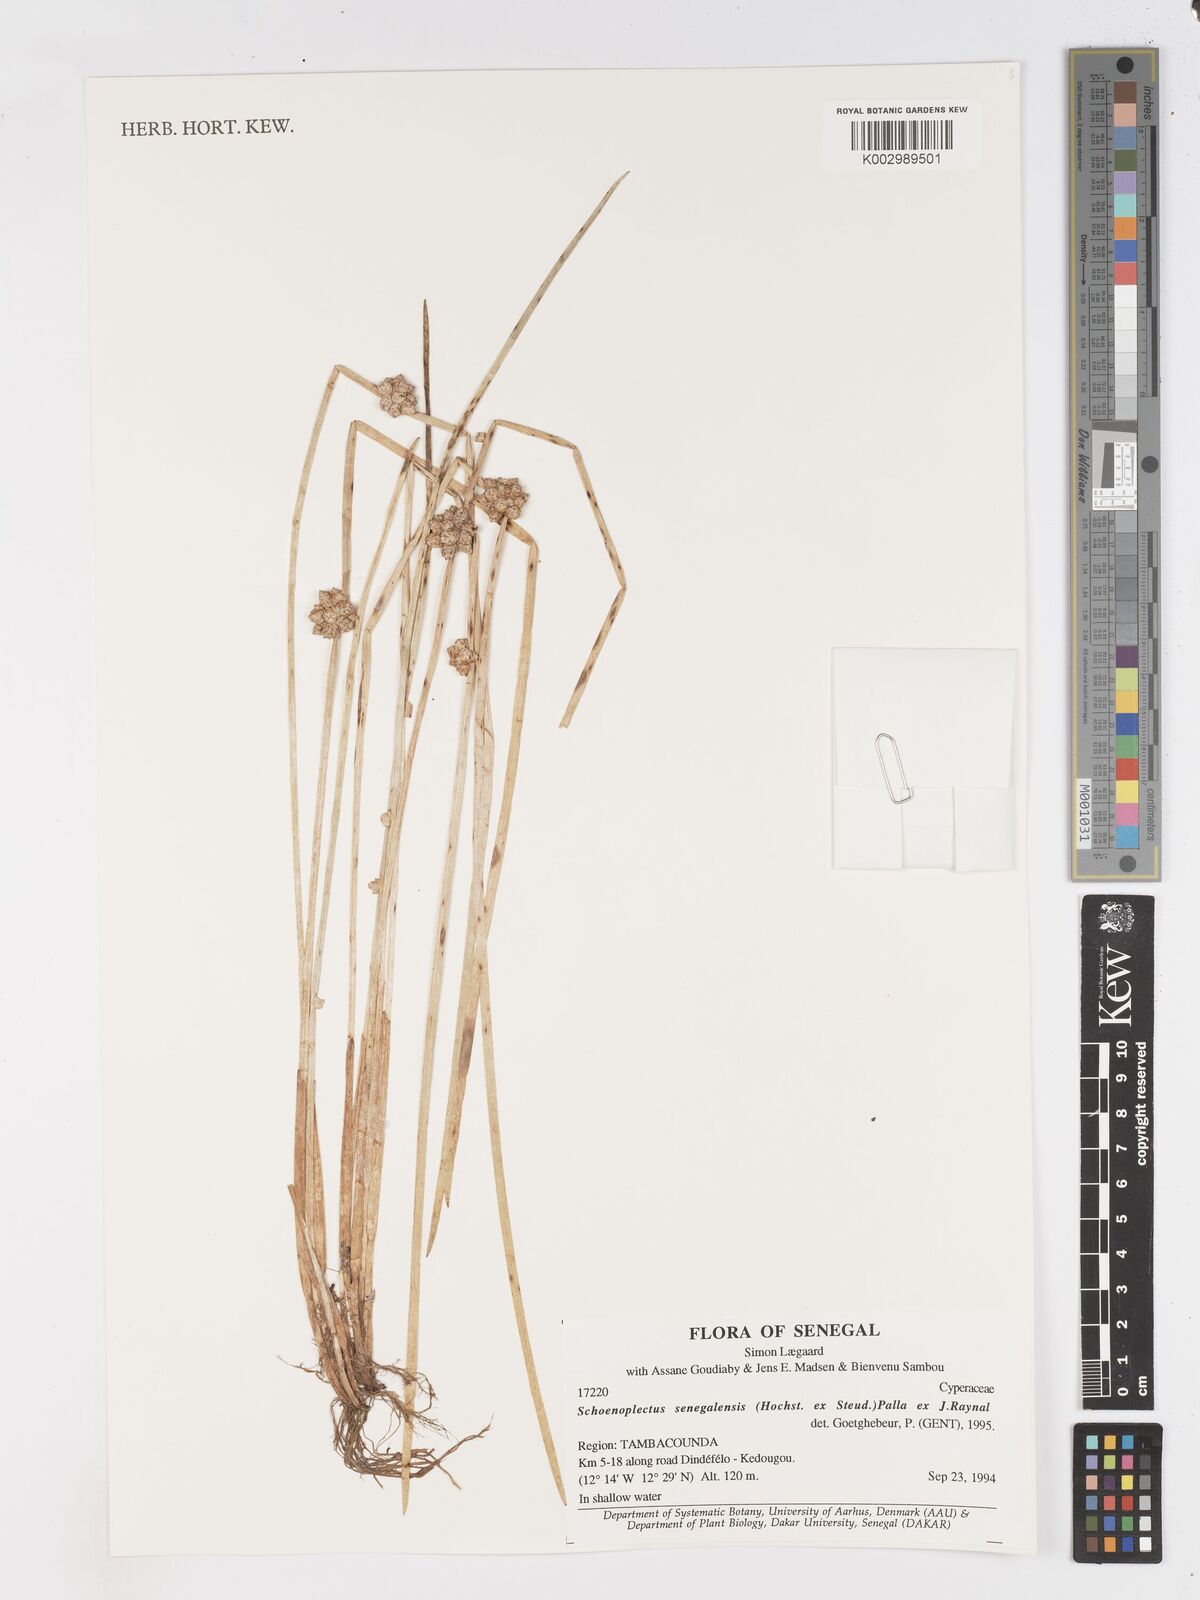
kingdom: Plantae
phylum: Tracheophyta
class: Liliopsida
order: Poales
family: Cyperaceae
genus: Schoenoplectiella
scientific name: Schoenoplectiella senegalensis
